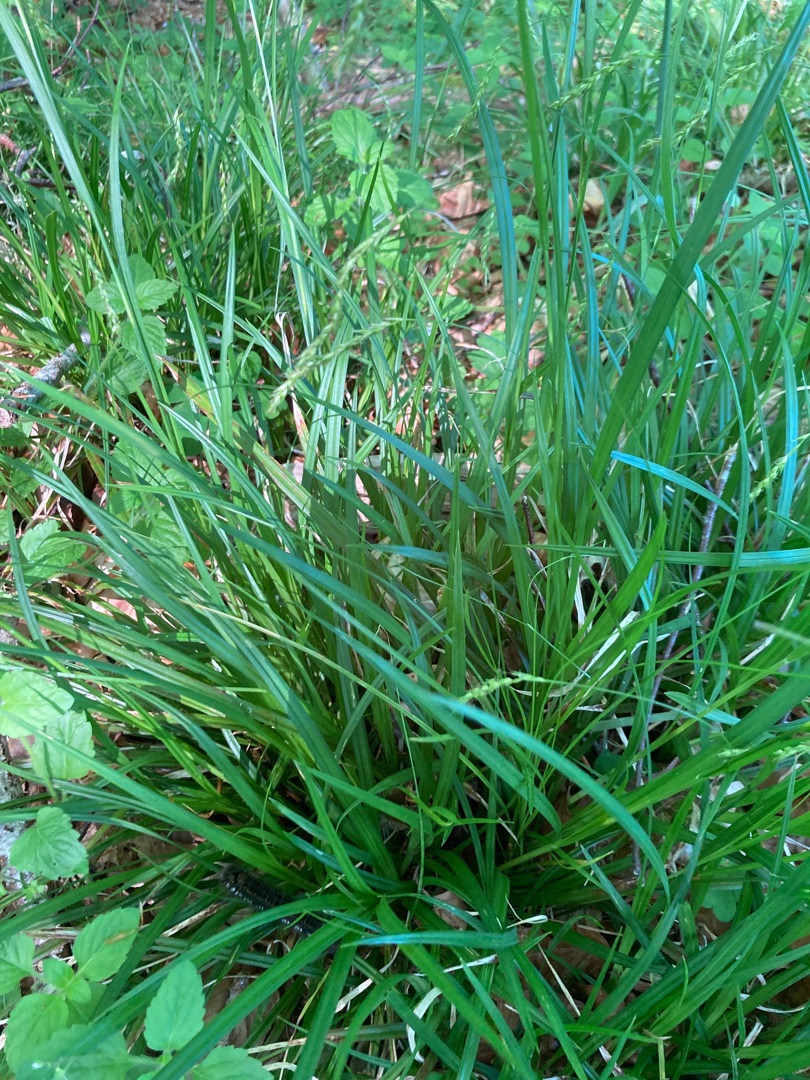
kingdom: Plantae
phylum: Tracheophyta
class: Liliopsida
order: Poales
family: Cyperaceae
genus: Carex
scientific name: Carex sylvatica
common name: Skov-star
